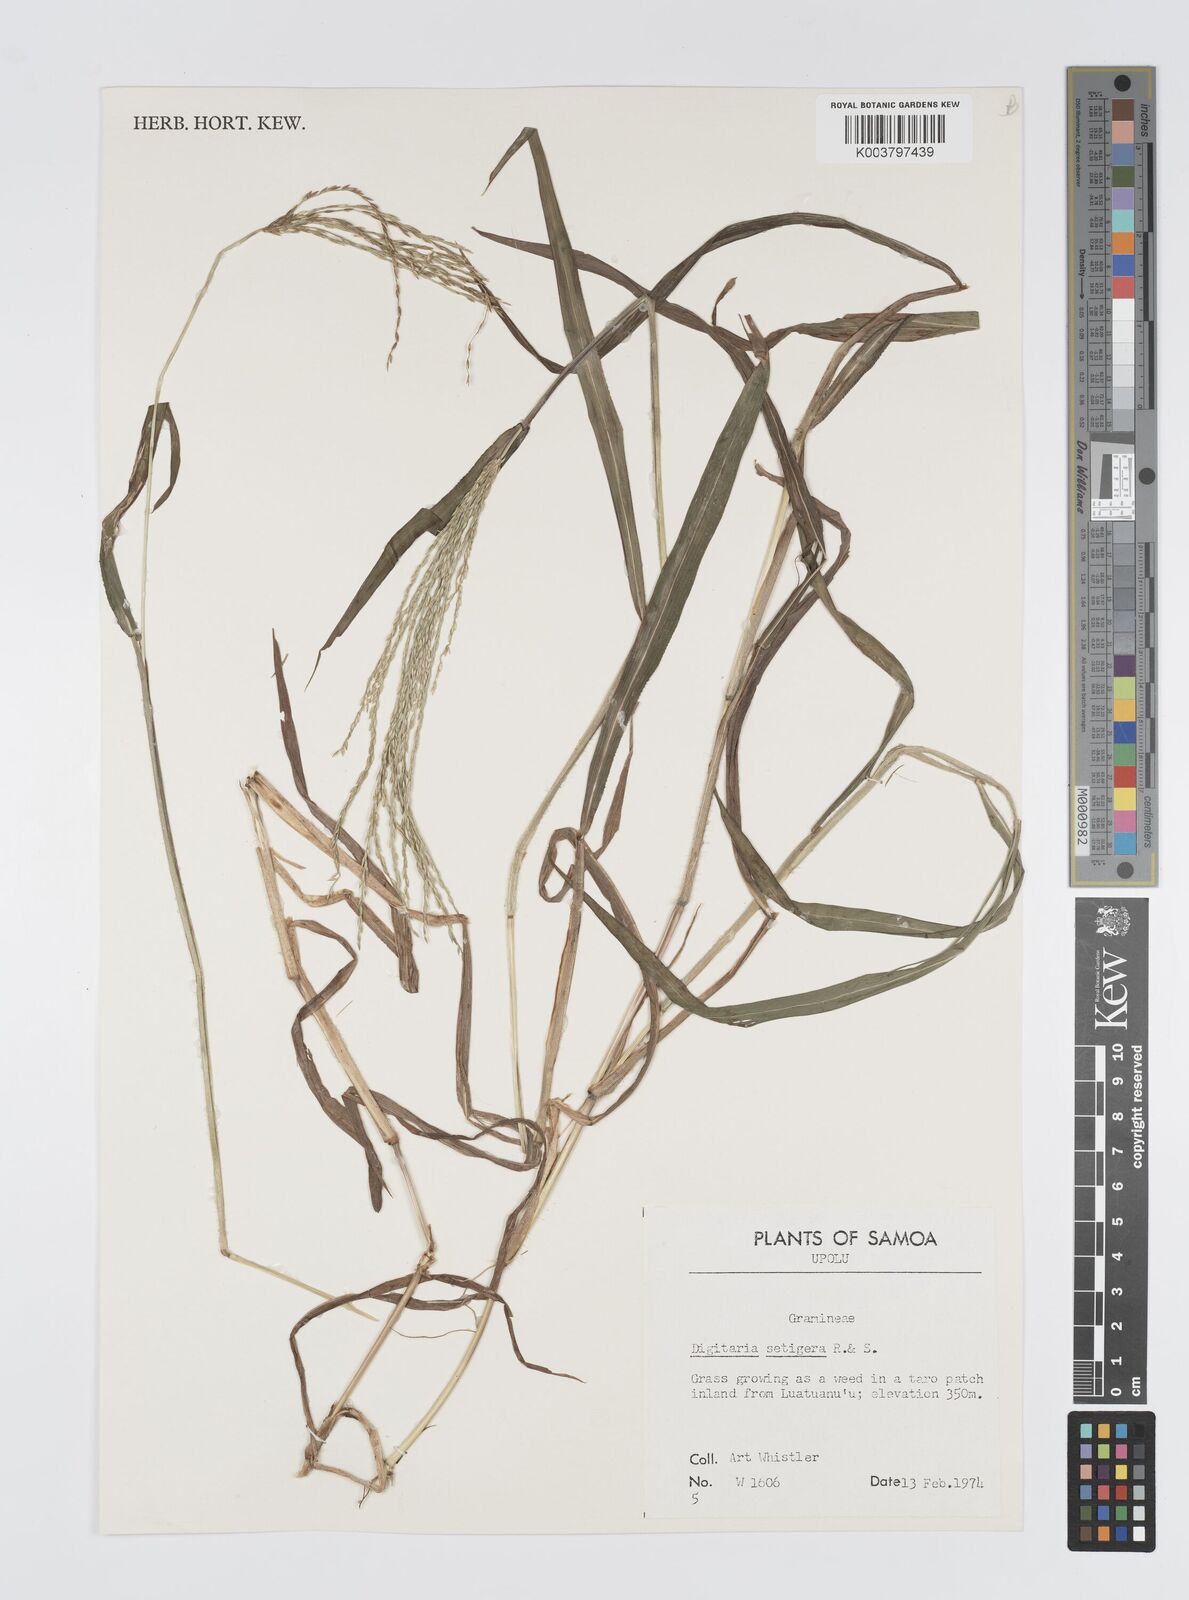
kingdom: Plantae
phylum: Tracheophyta
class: Liliopsida
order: Poales
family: Poaceae
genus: Digitaria
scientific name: Digitaria setigera
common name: East indian crabgrass
